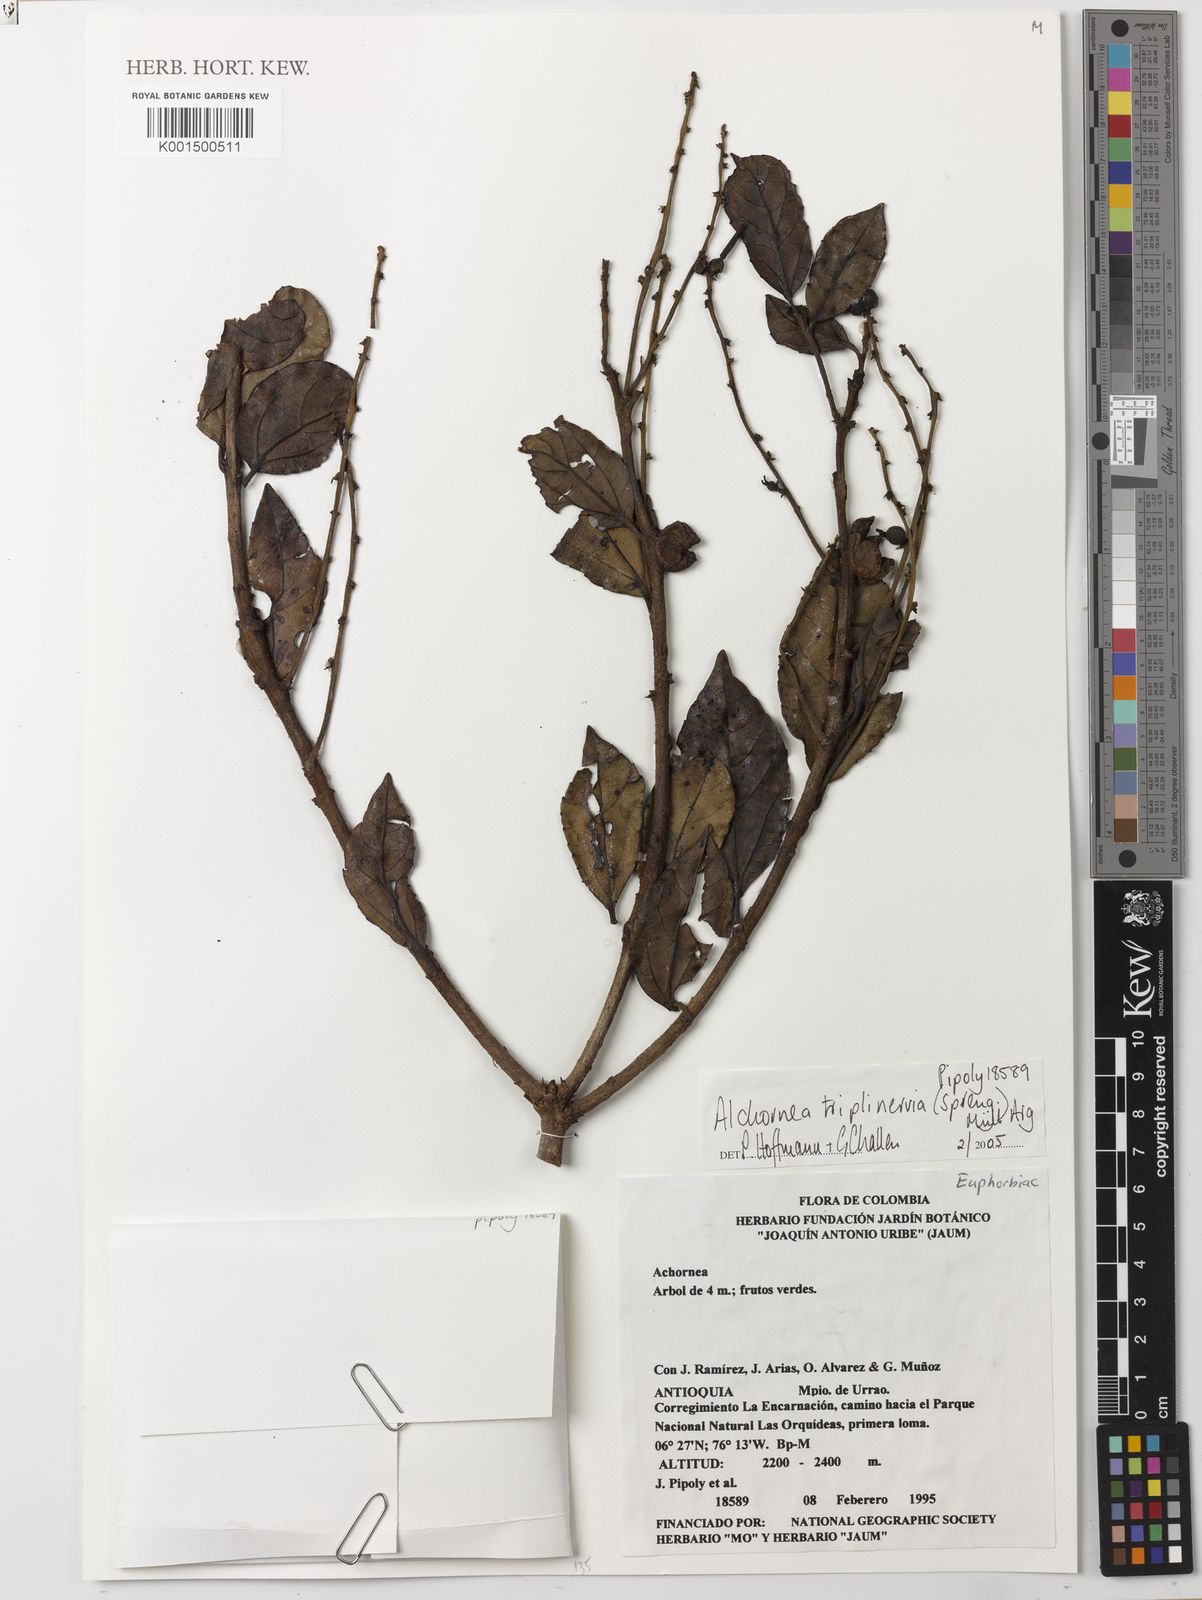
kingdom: Plantae
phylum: Tracheophyta
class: Magnoliopsida
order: Malpighiales
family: Euphorbiaceae
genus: Alchornea
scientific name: Alchornea triplinervia
